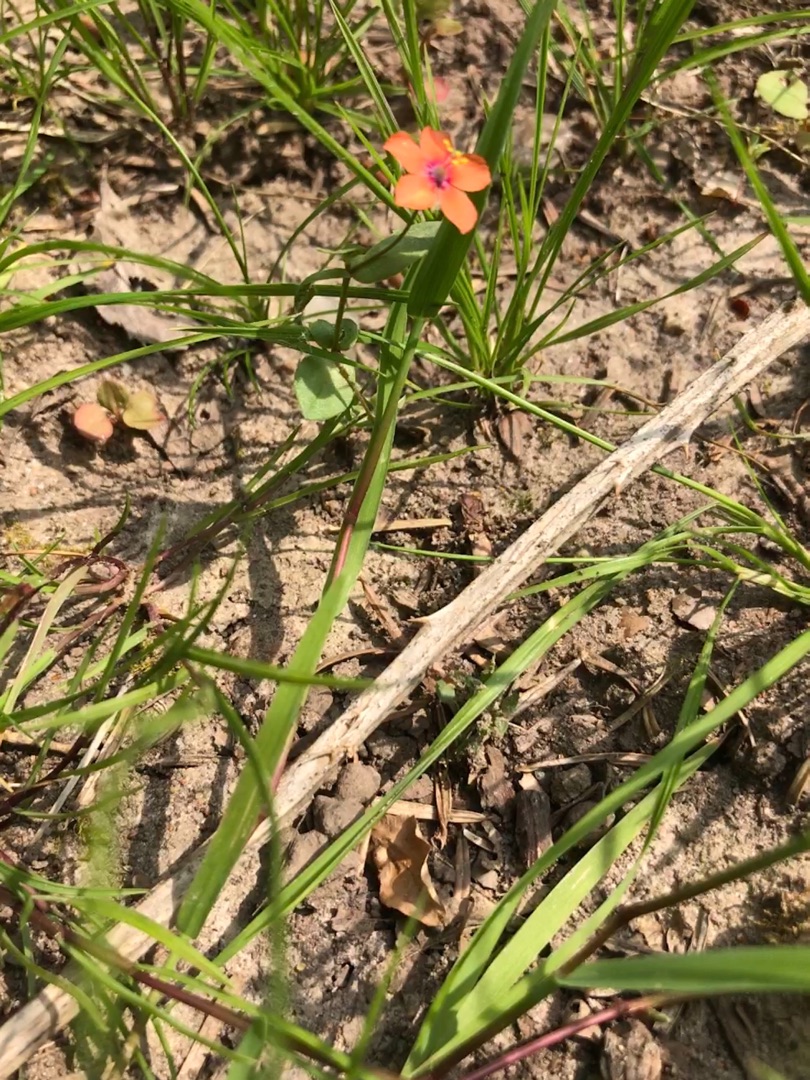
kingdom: Plantae
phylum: Tracheophyta
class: Magnoliopsida
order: Ericales
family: Primulaceae
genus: Lysimachia
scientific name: Lysimachia arvensis
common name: Rød arve
